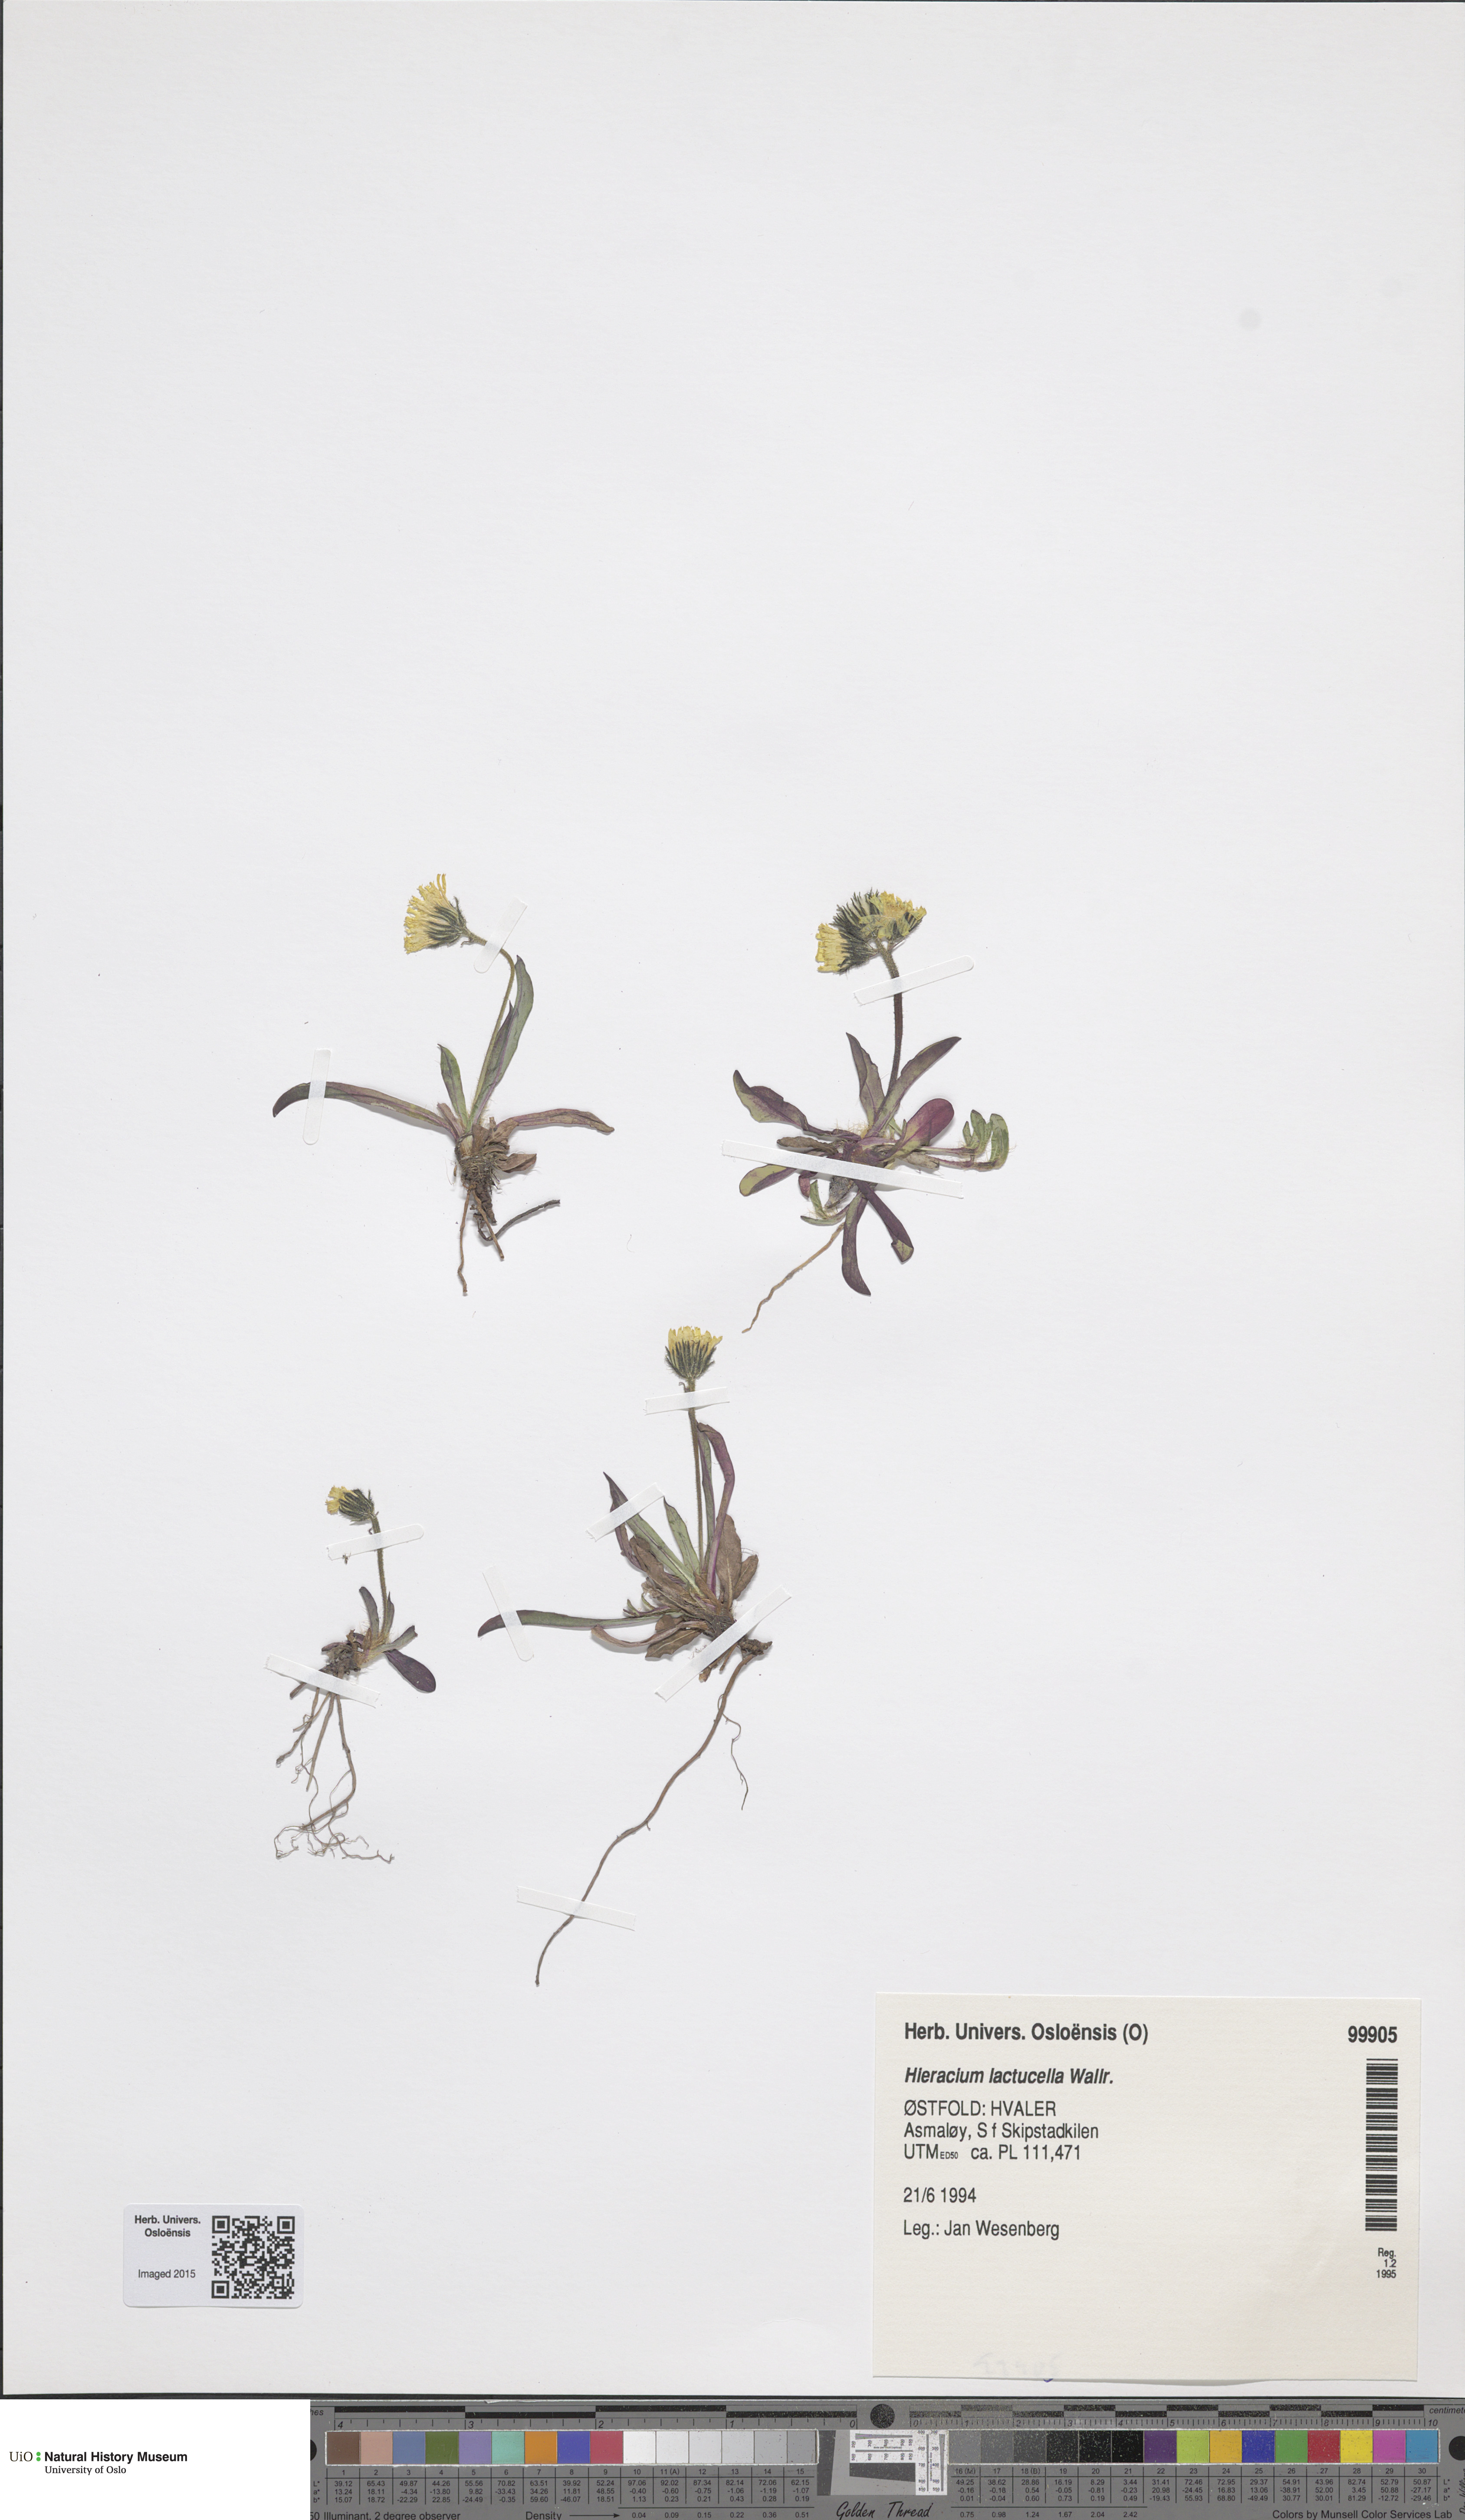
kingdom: Plantae
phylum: Tracheophyta
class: Magnoliopsida
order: Asterales
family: Asteraceae
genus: Pilosella
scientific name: Pilosella lactucella
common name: Glaucous fox-and-cubs
